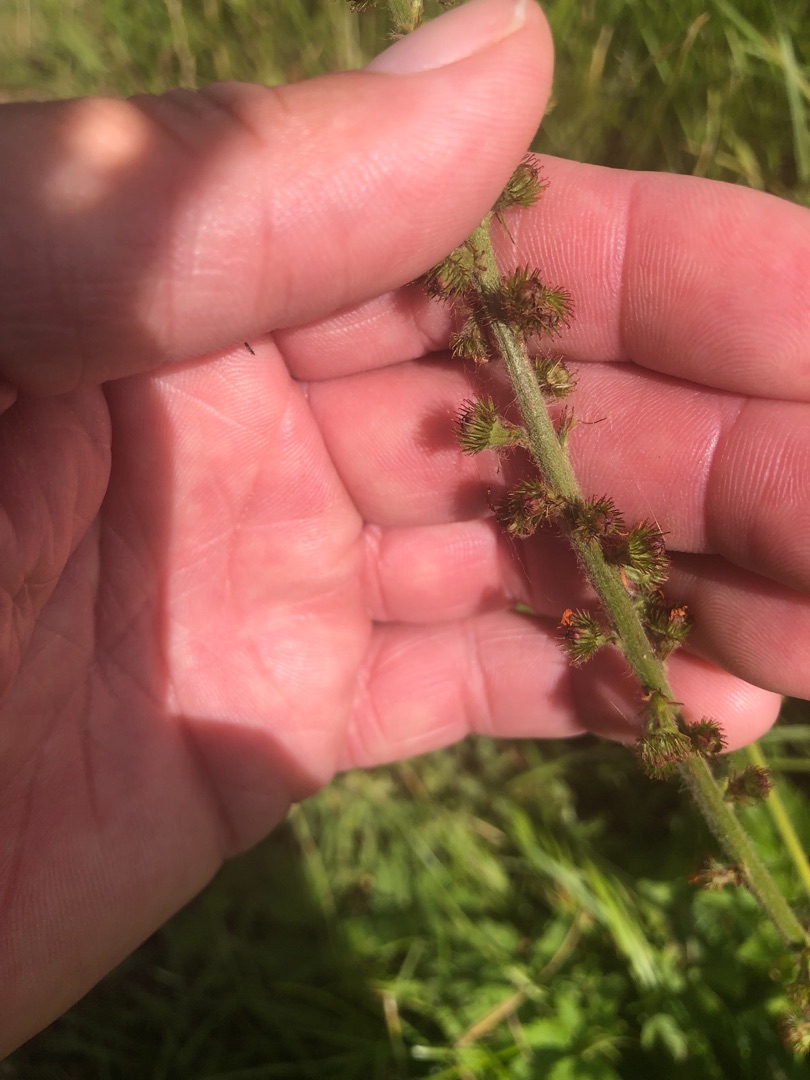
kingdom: Plantae
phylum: Tracheophyta
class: Magnoliopsida
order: Rosales
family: Rosaceae
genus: Agrimonia
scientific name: Agrimonia eupatoria
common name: Almindelig agermåne
